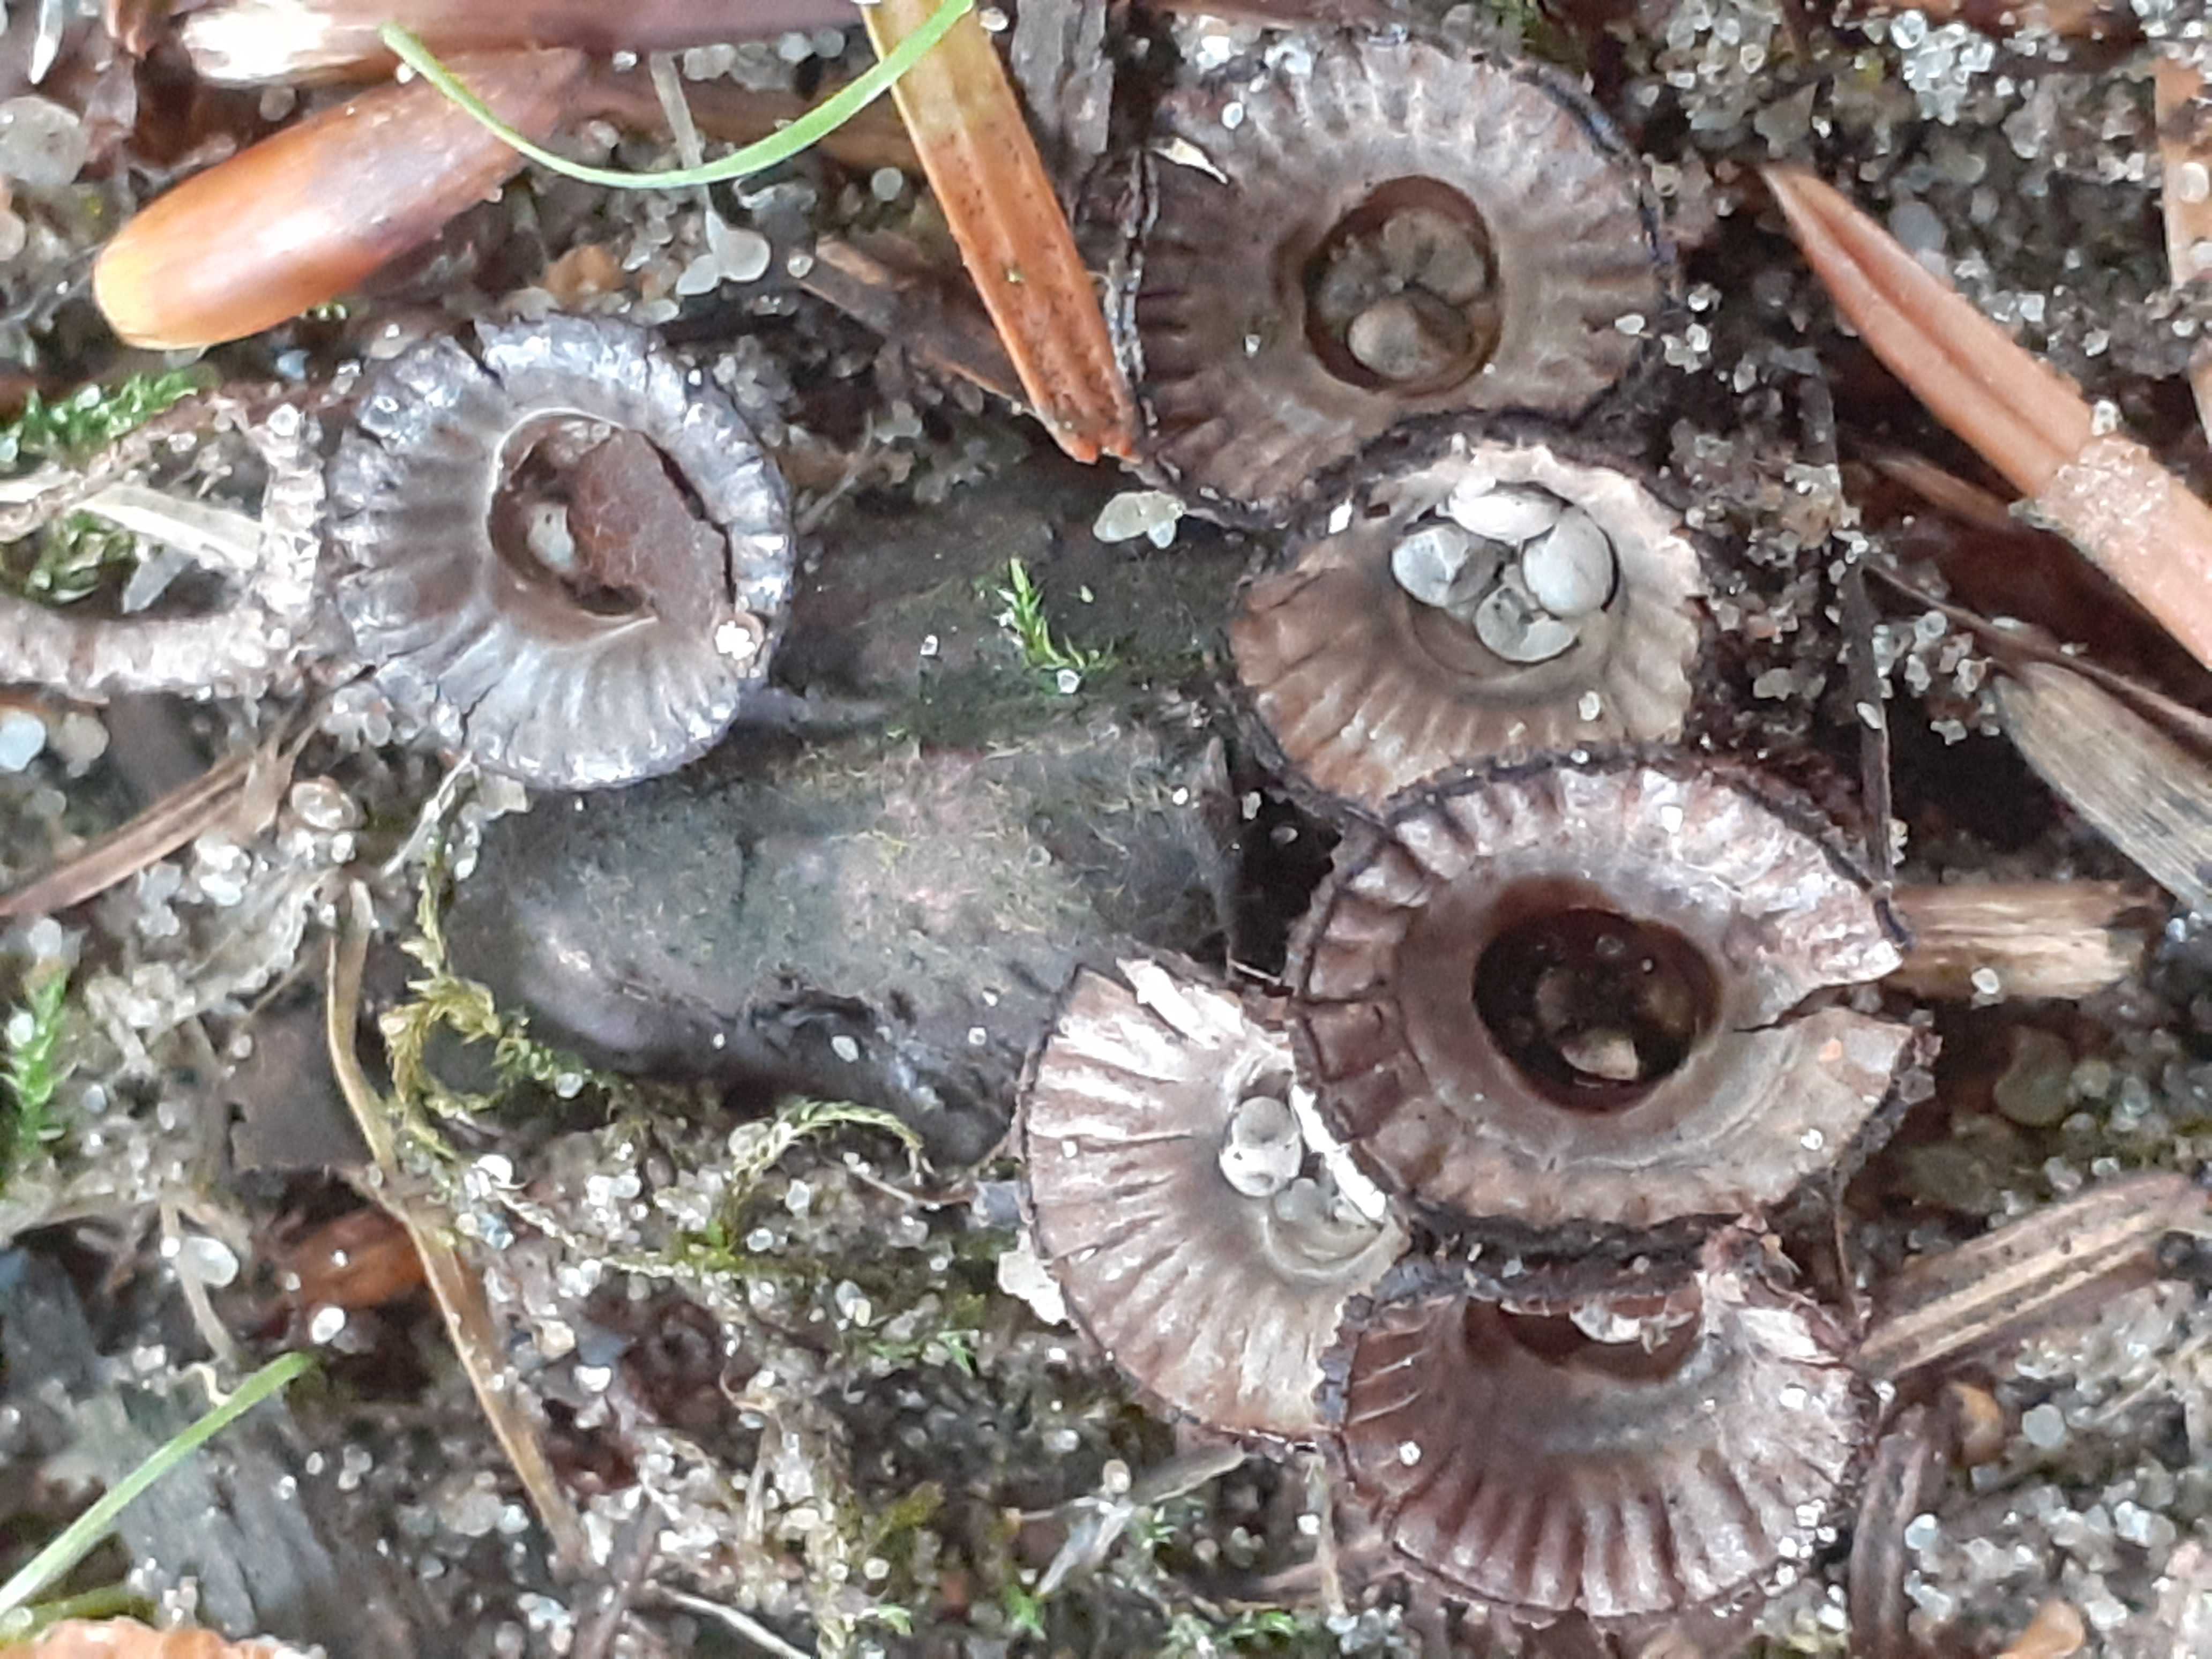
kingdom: Fungi
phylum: Basidiomycota
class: Agaricomycetes
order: Agaricales
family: Agaricaceae
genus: Cyathus
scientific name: Cyathus striatus
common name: stribet redesvamp
